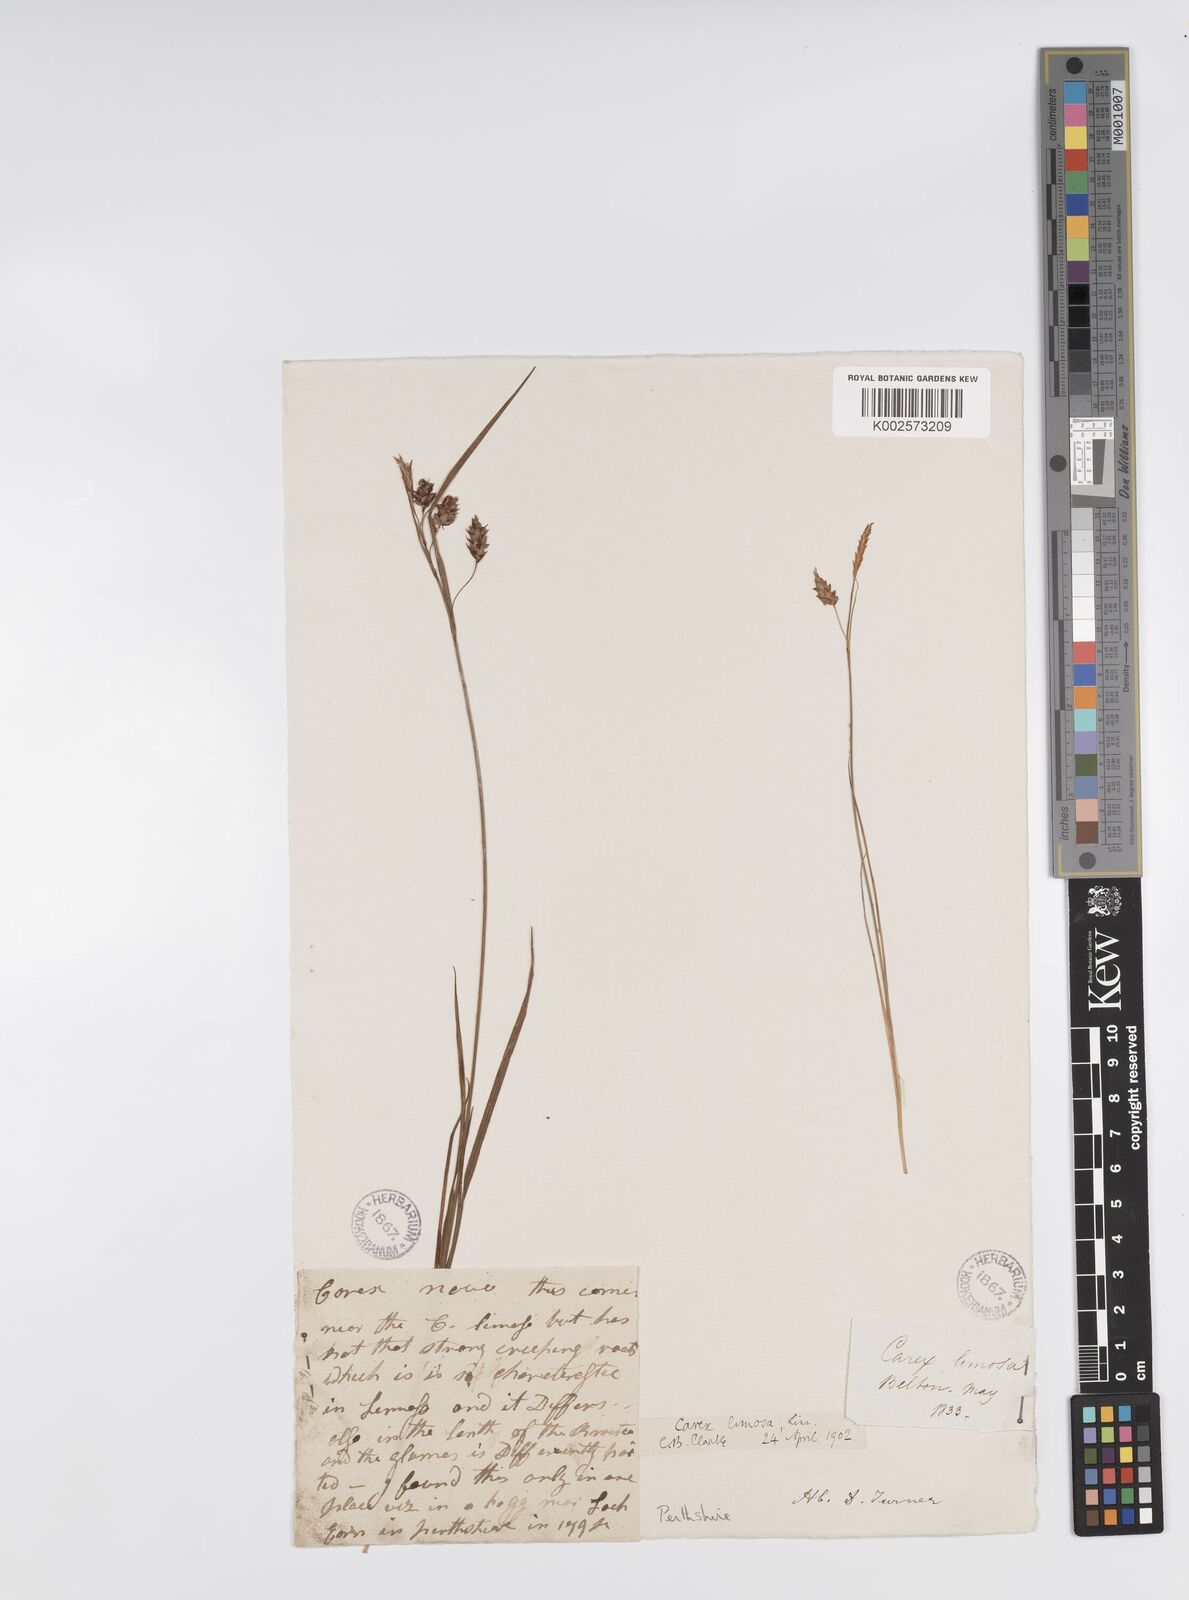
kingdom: Plantae
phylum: Tracheophyta
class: Liliopsida
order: Poales
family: Cyperaceae
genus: Carex
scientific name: Carex magellanica
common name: Bog sedge
